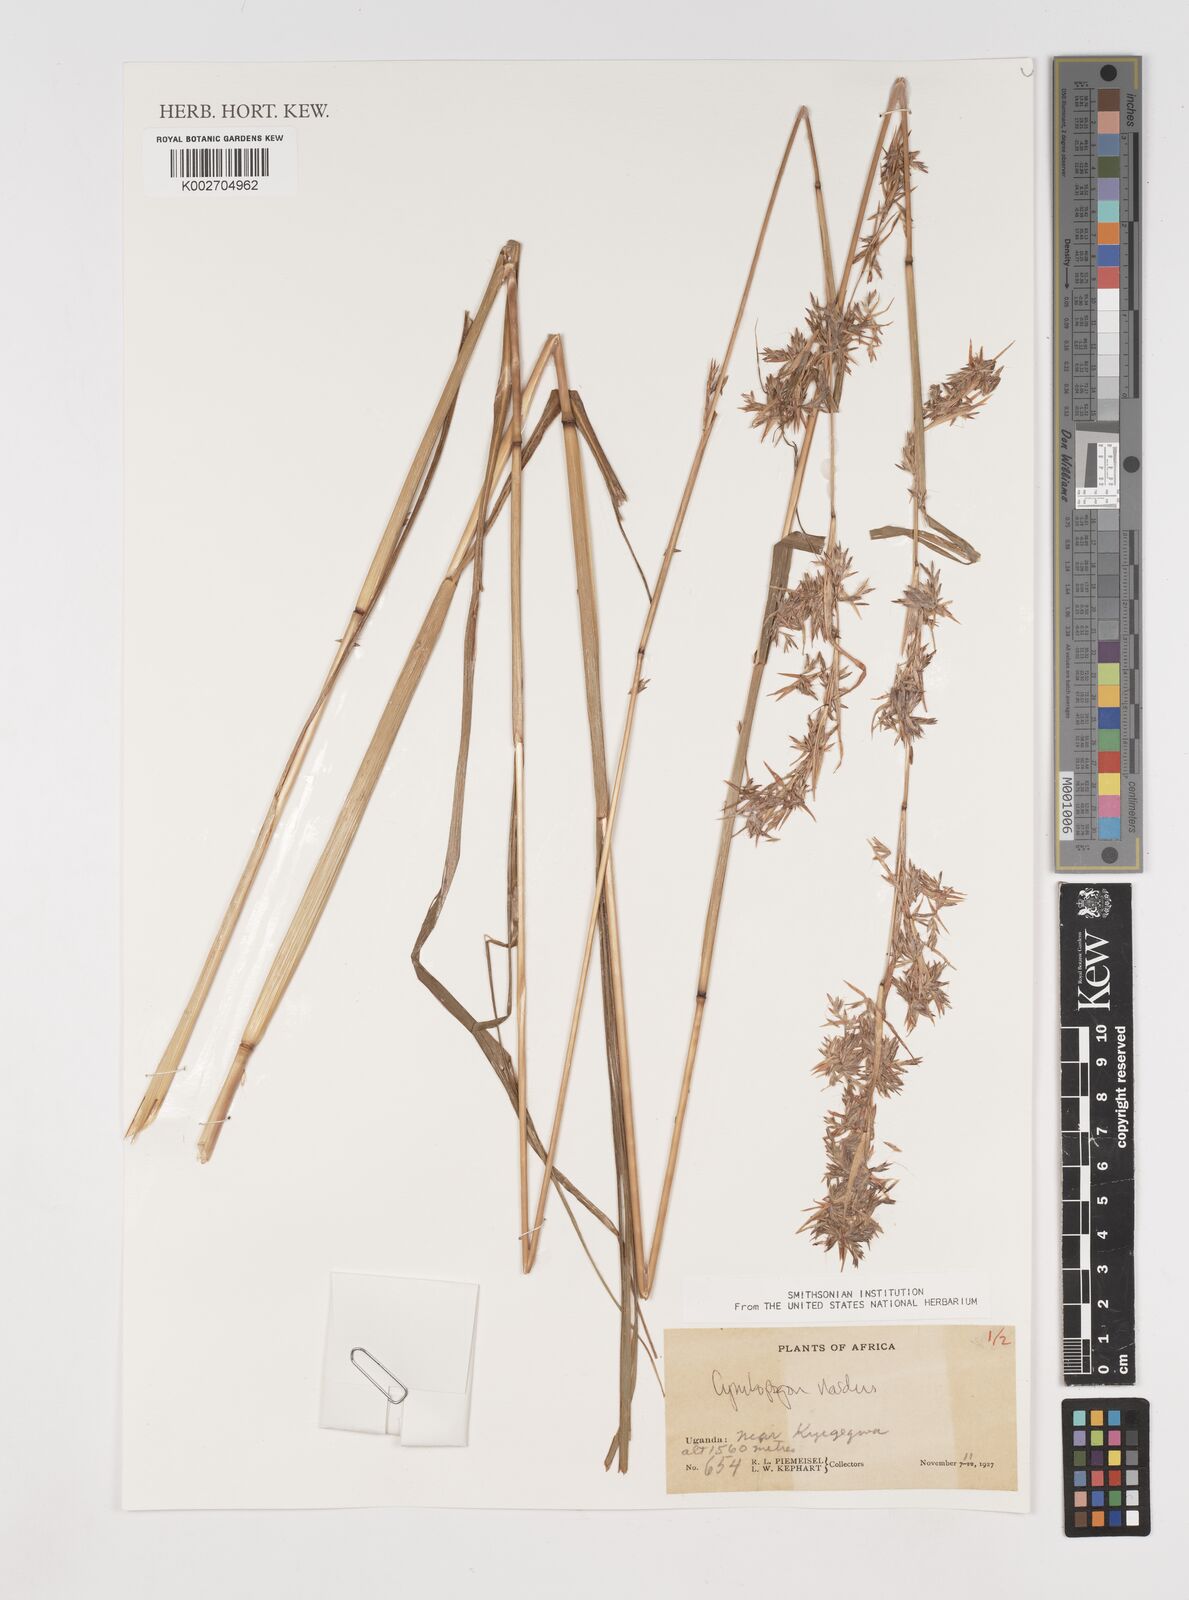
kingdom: Plantae
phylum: Tracheophyta
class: Liliopsida
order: Poales
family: Poaceae
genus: Cymbopogon
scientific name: Cymbopogon nardus
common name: Giant turpentine grass
